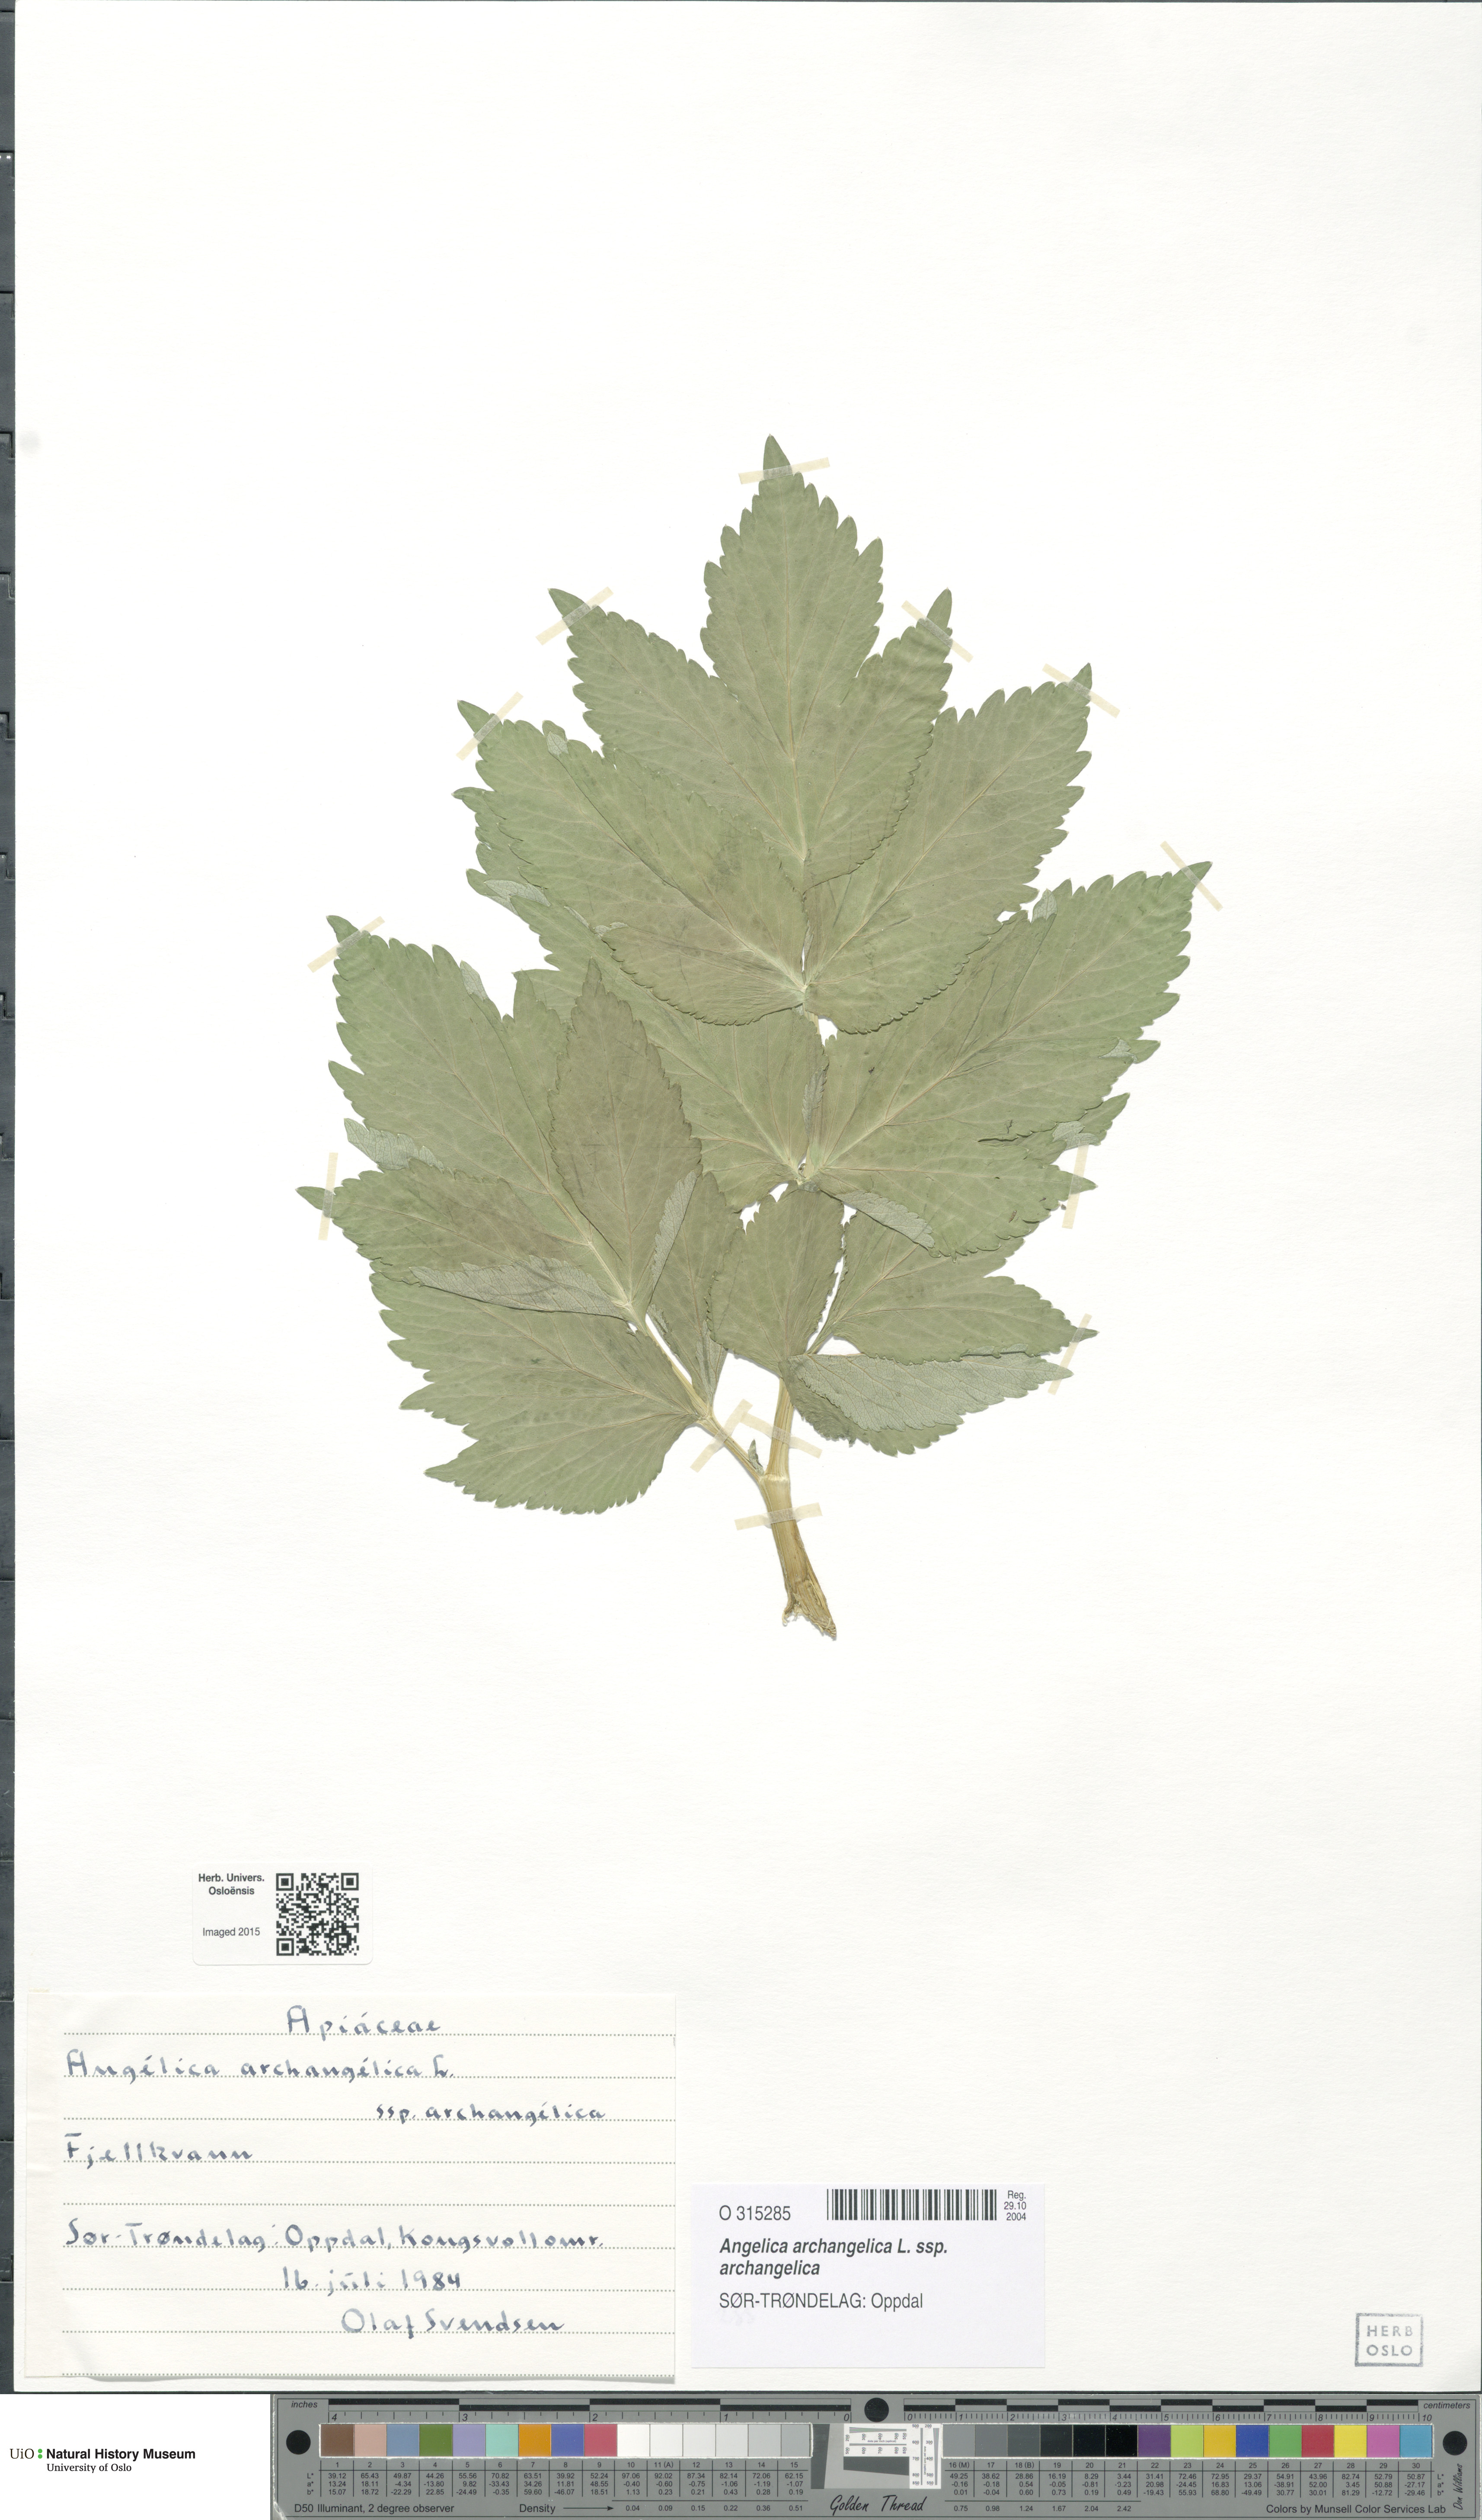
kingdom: Plantae
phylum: Tracheophyta
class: Magnoliopsida
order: Apiales
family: Apiaceae
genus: Angelica
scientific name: Angelica archangelica
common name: Garden angelica
